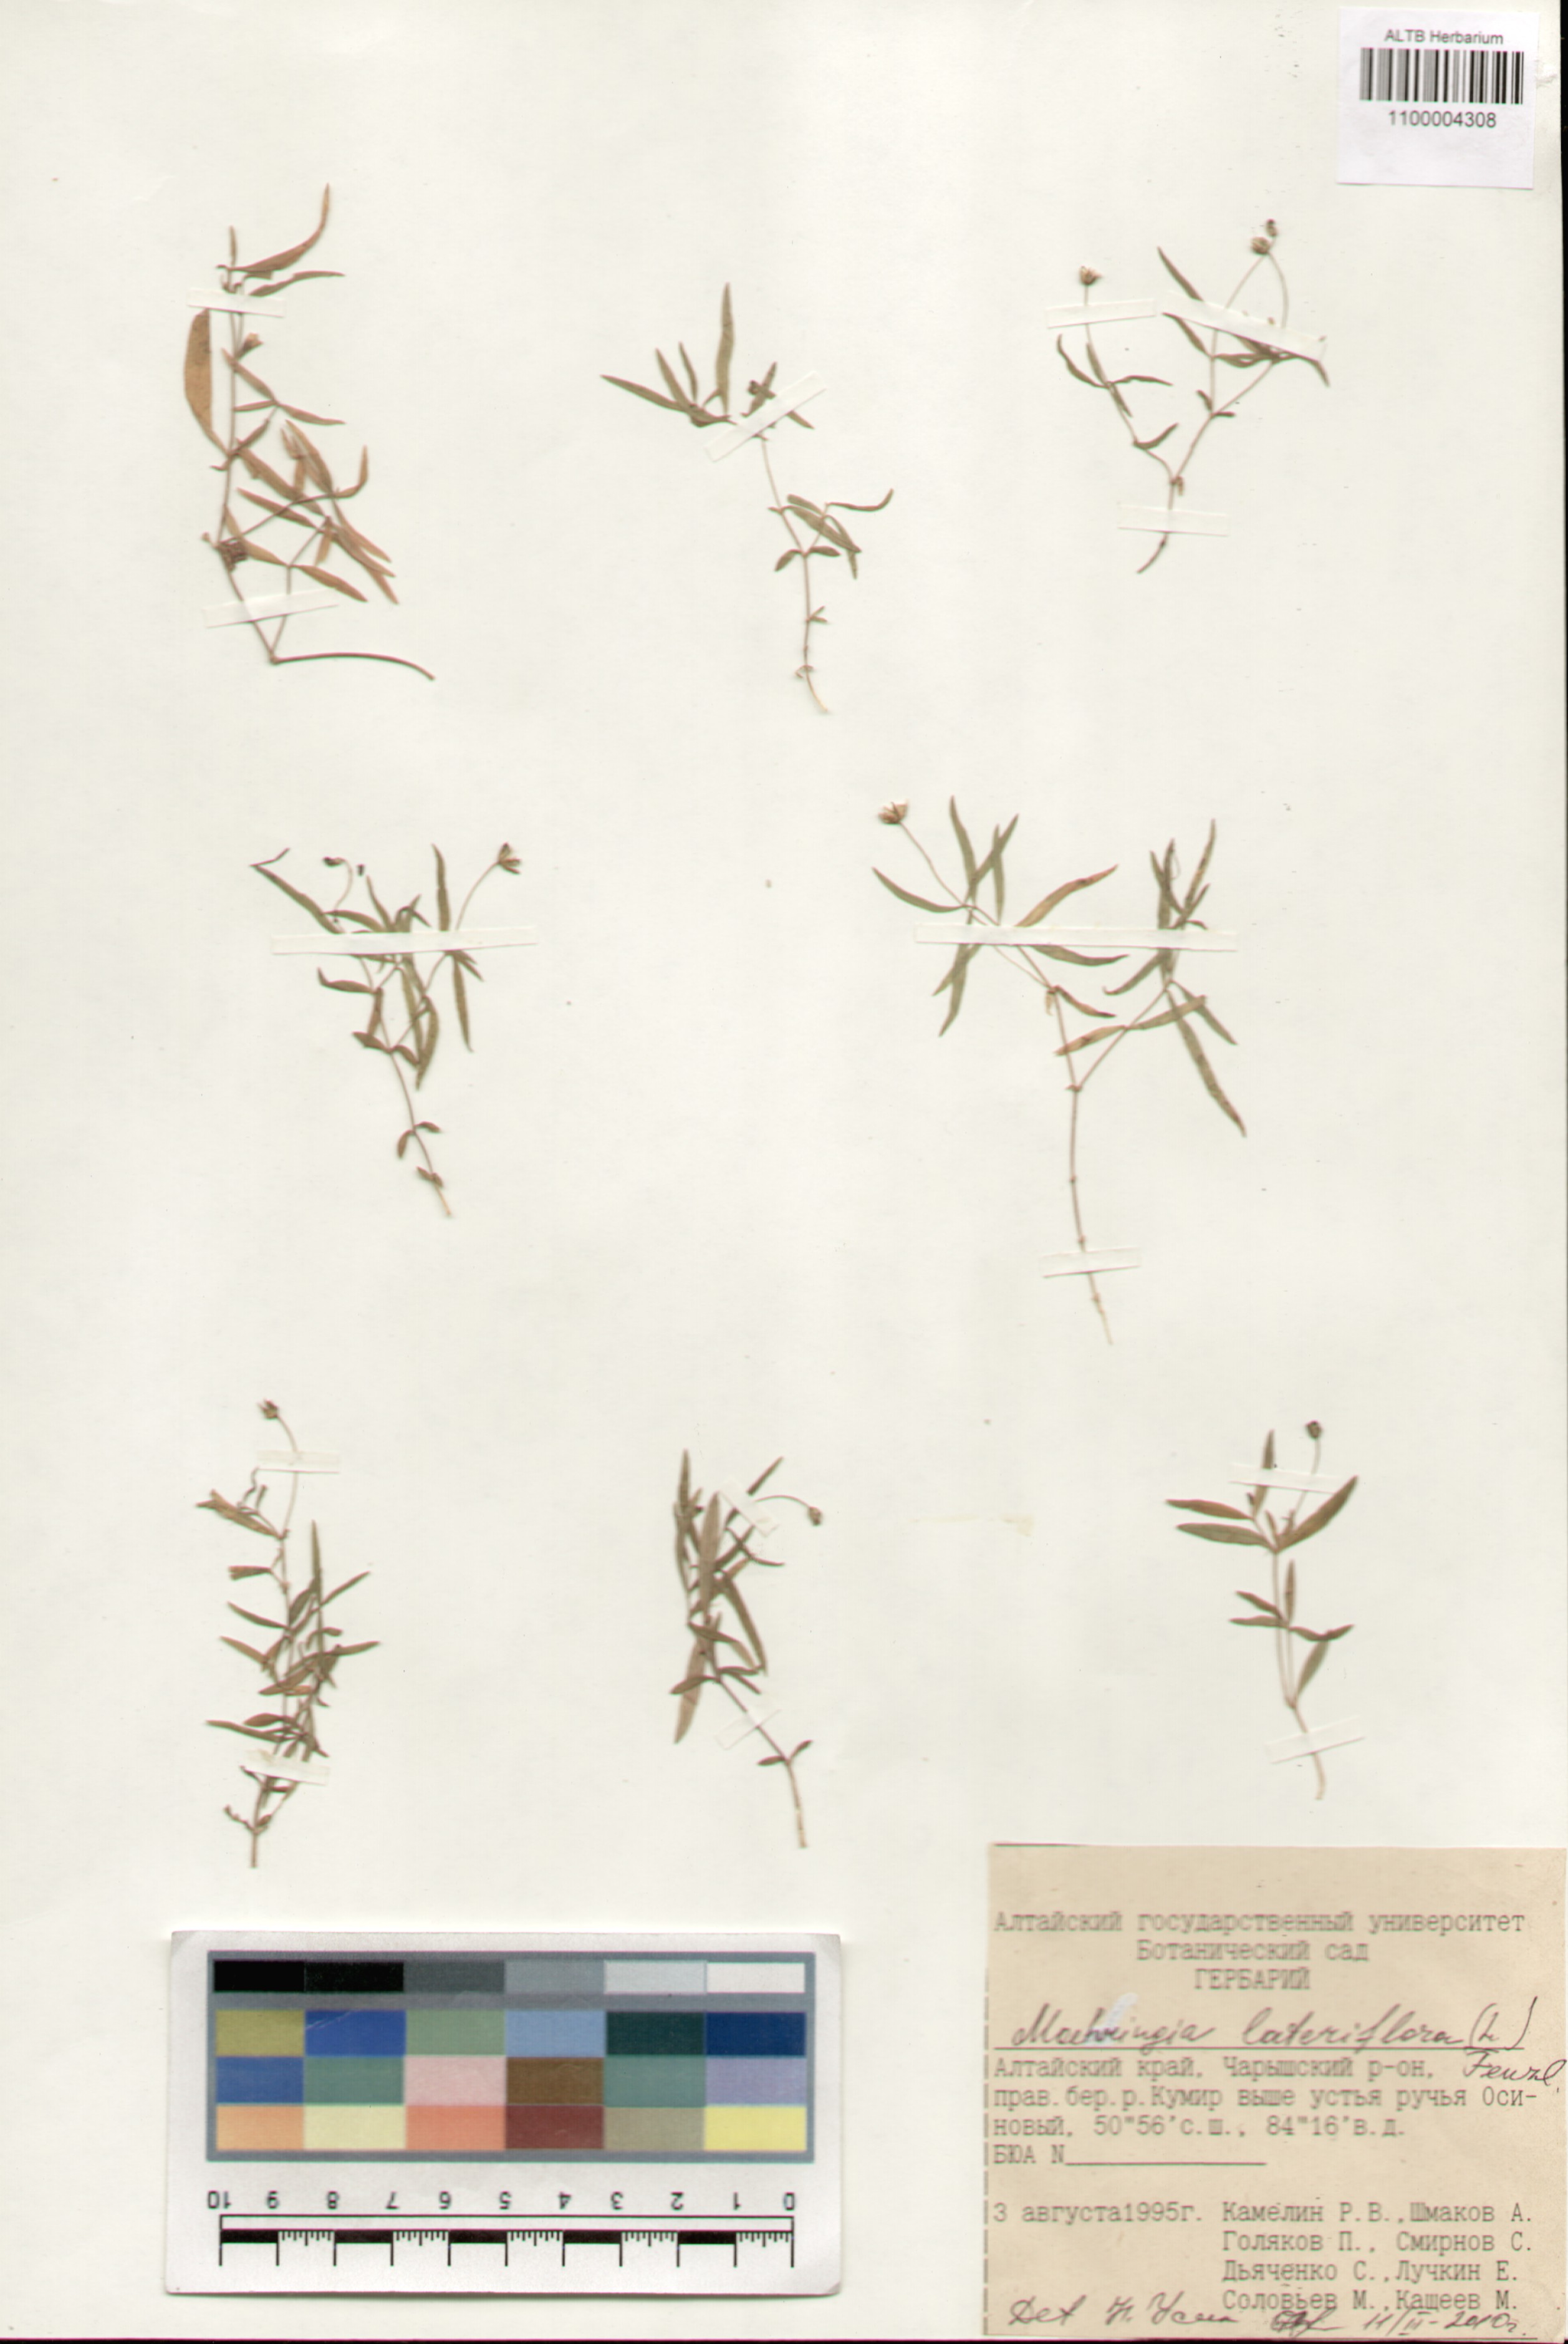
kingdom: Plantae
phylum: Tracheophyta
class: Magnoliopsida
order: Caryophyllales
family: Caryophyllaceae
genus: Moehringia
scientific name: Moehringia lateriflora
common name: Blunt-leaved sandwort
